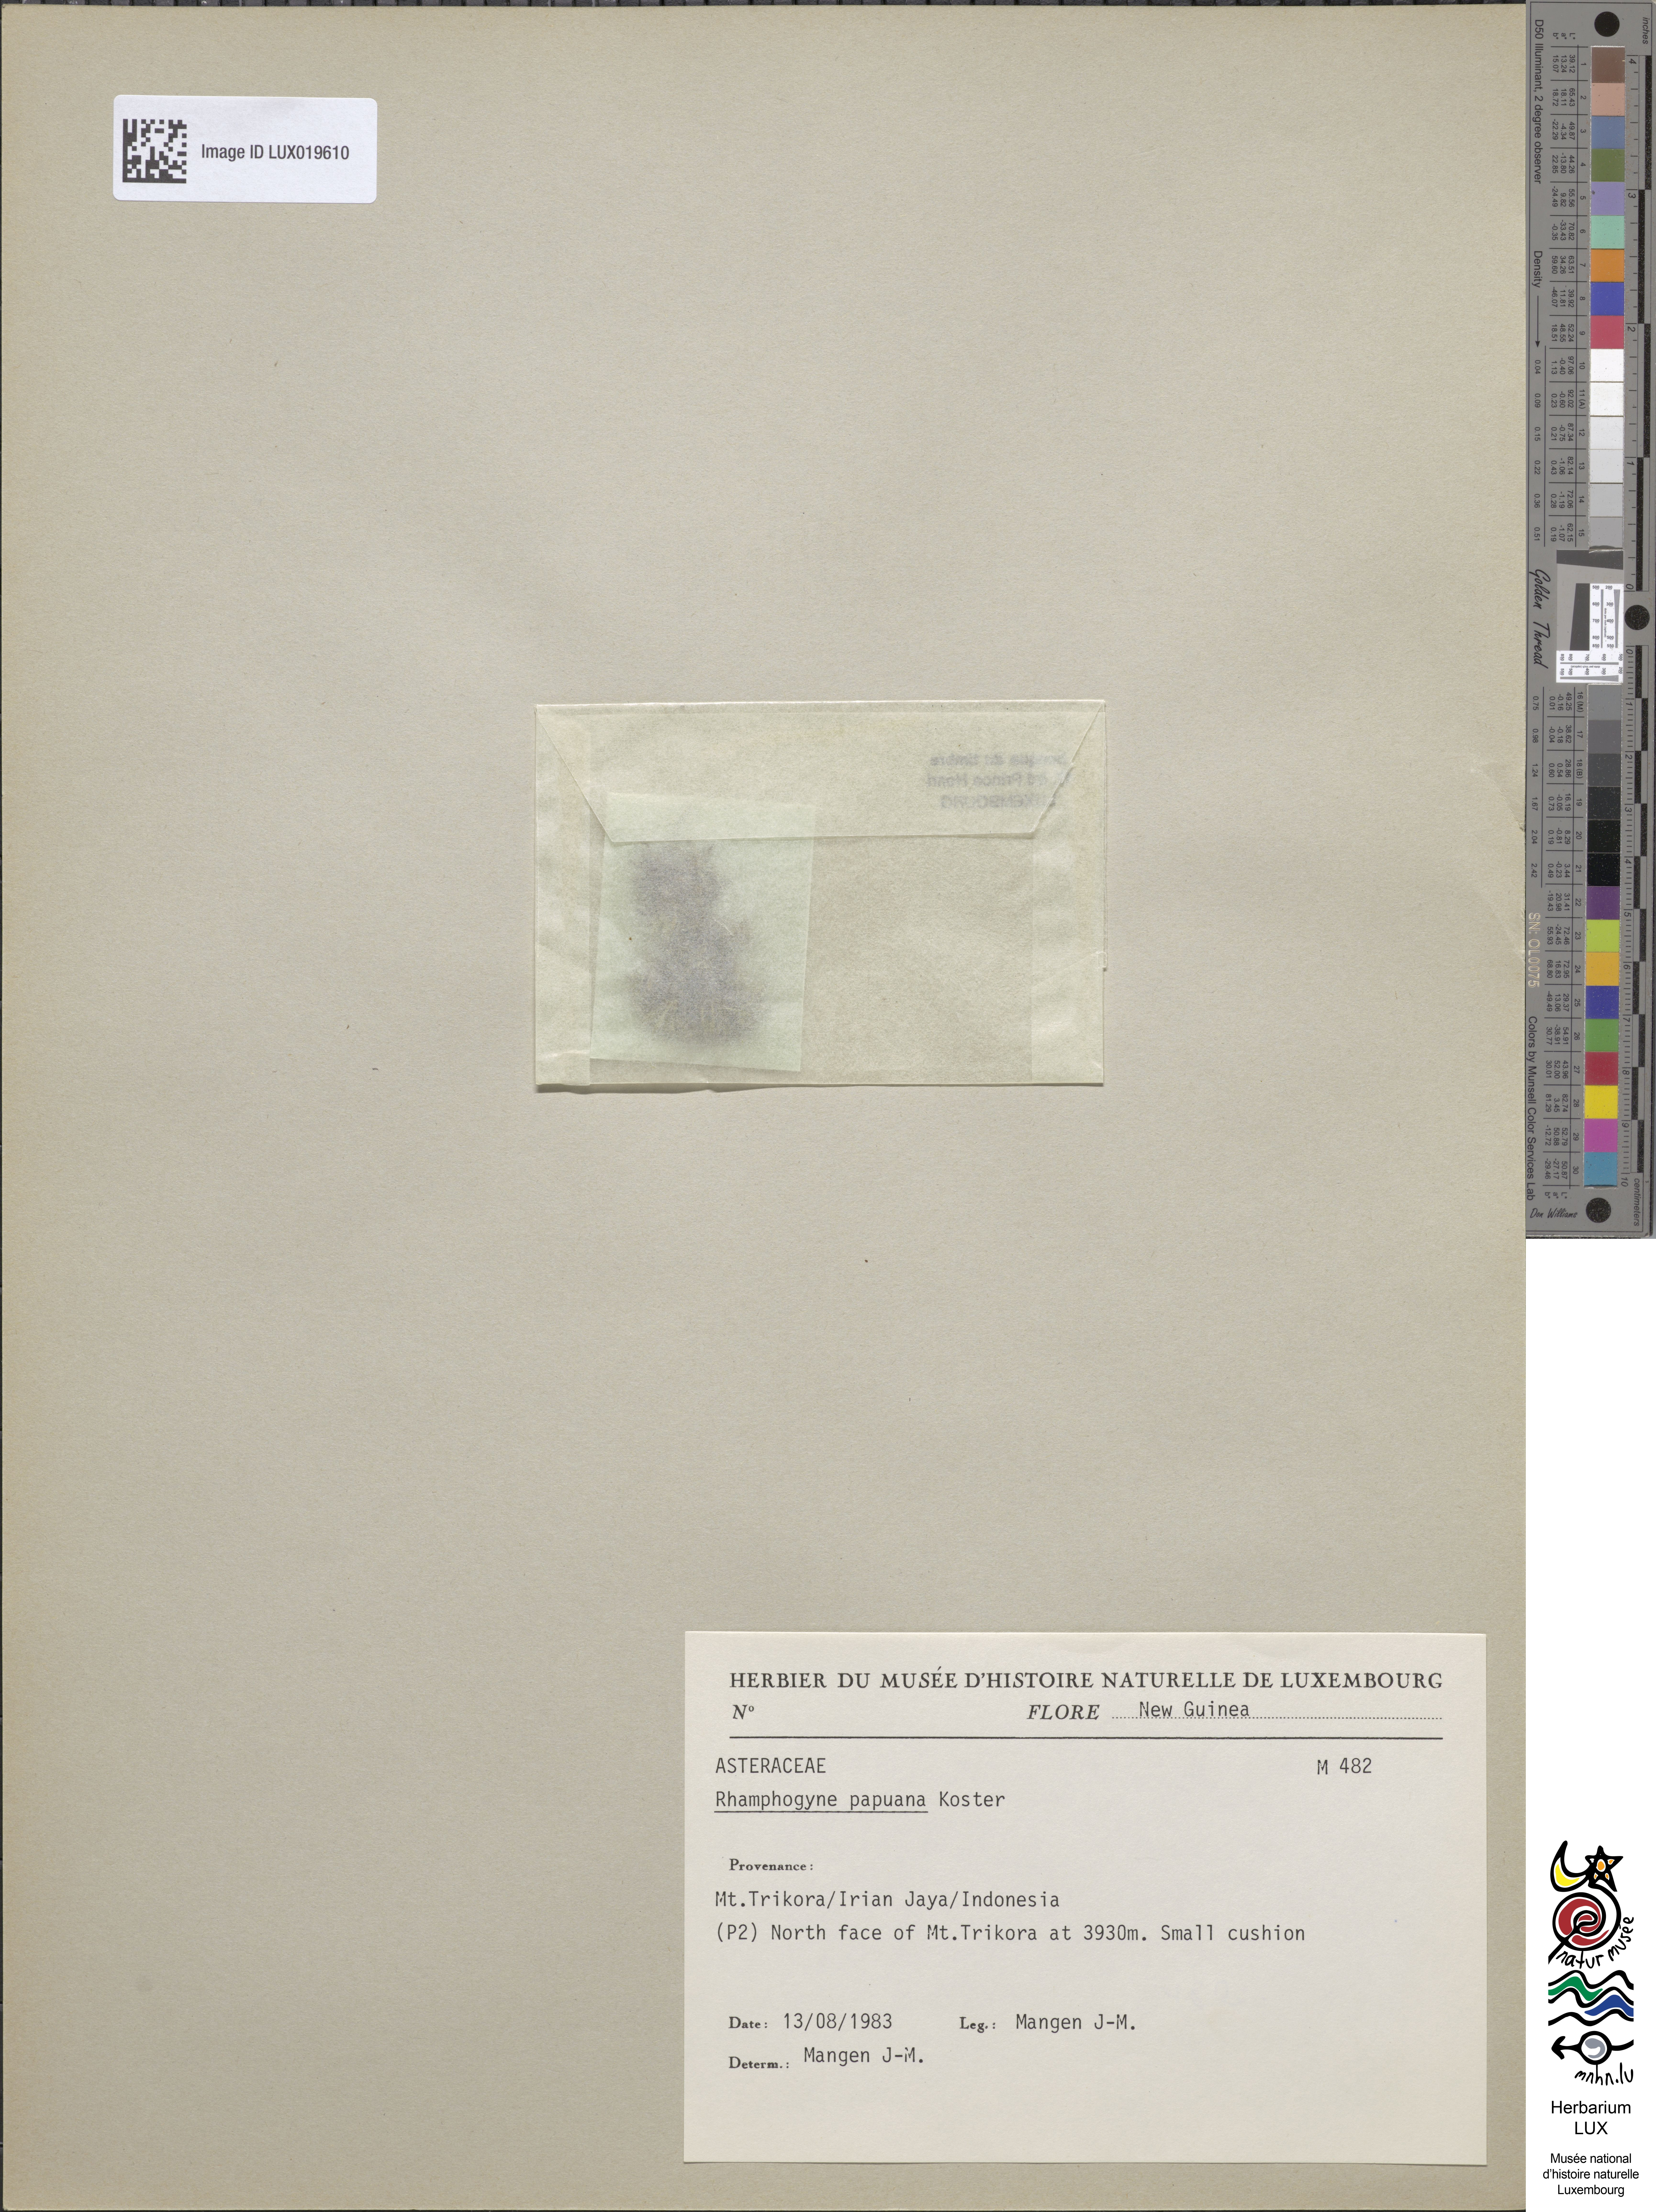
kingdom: Plantae
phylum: Tracheophyta
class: Magnoliopsida
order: Asterales
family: Asteraceae
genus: Lagenocypsela
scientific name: Lagenocypsela papuana
